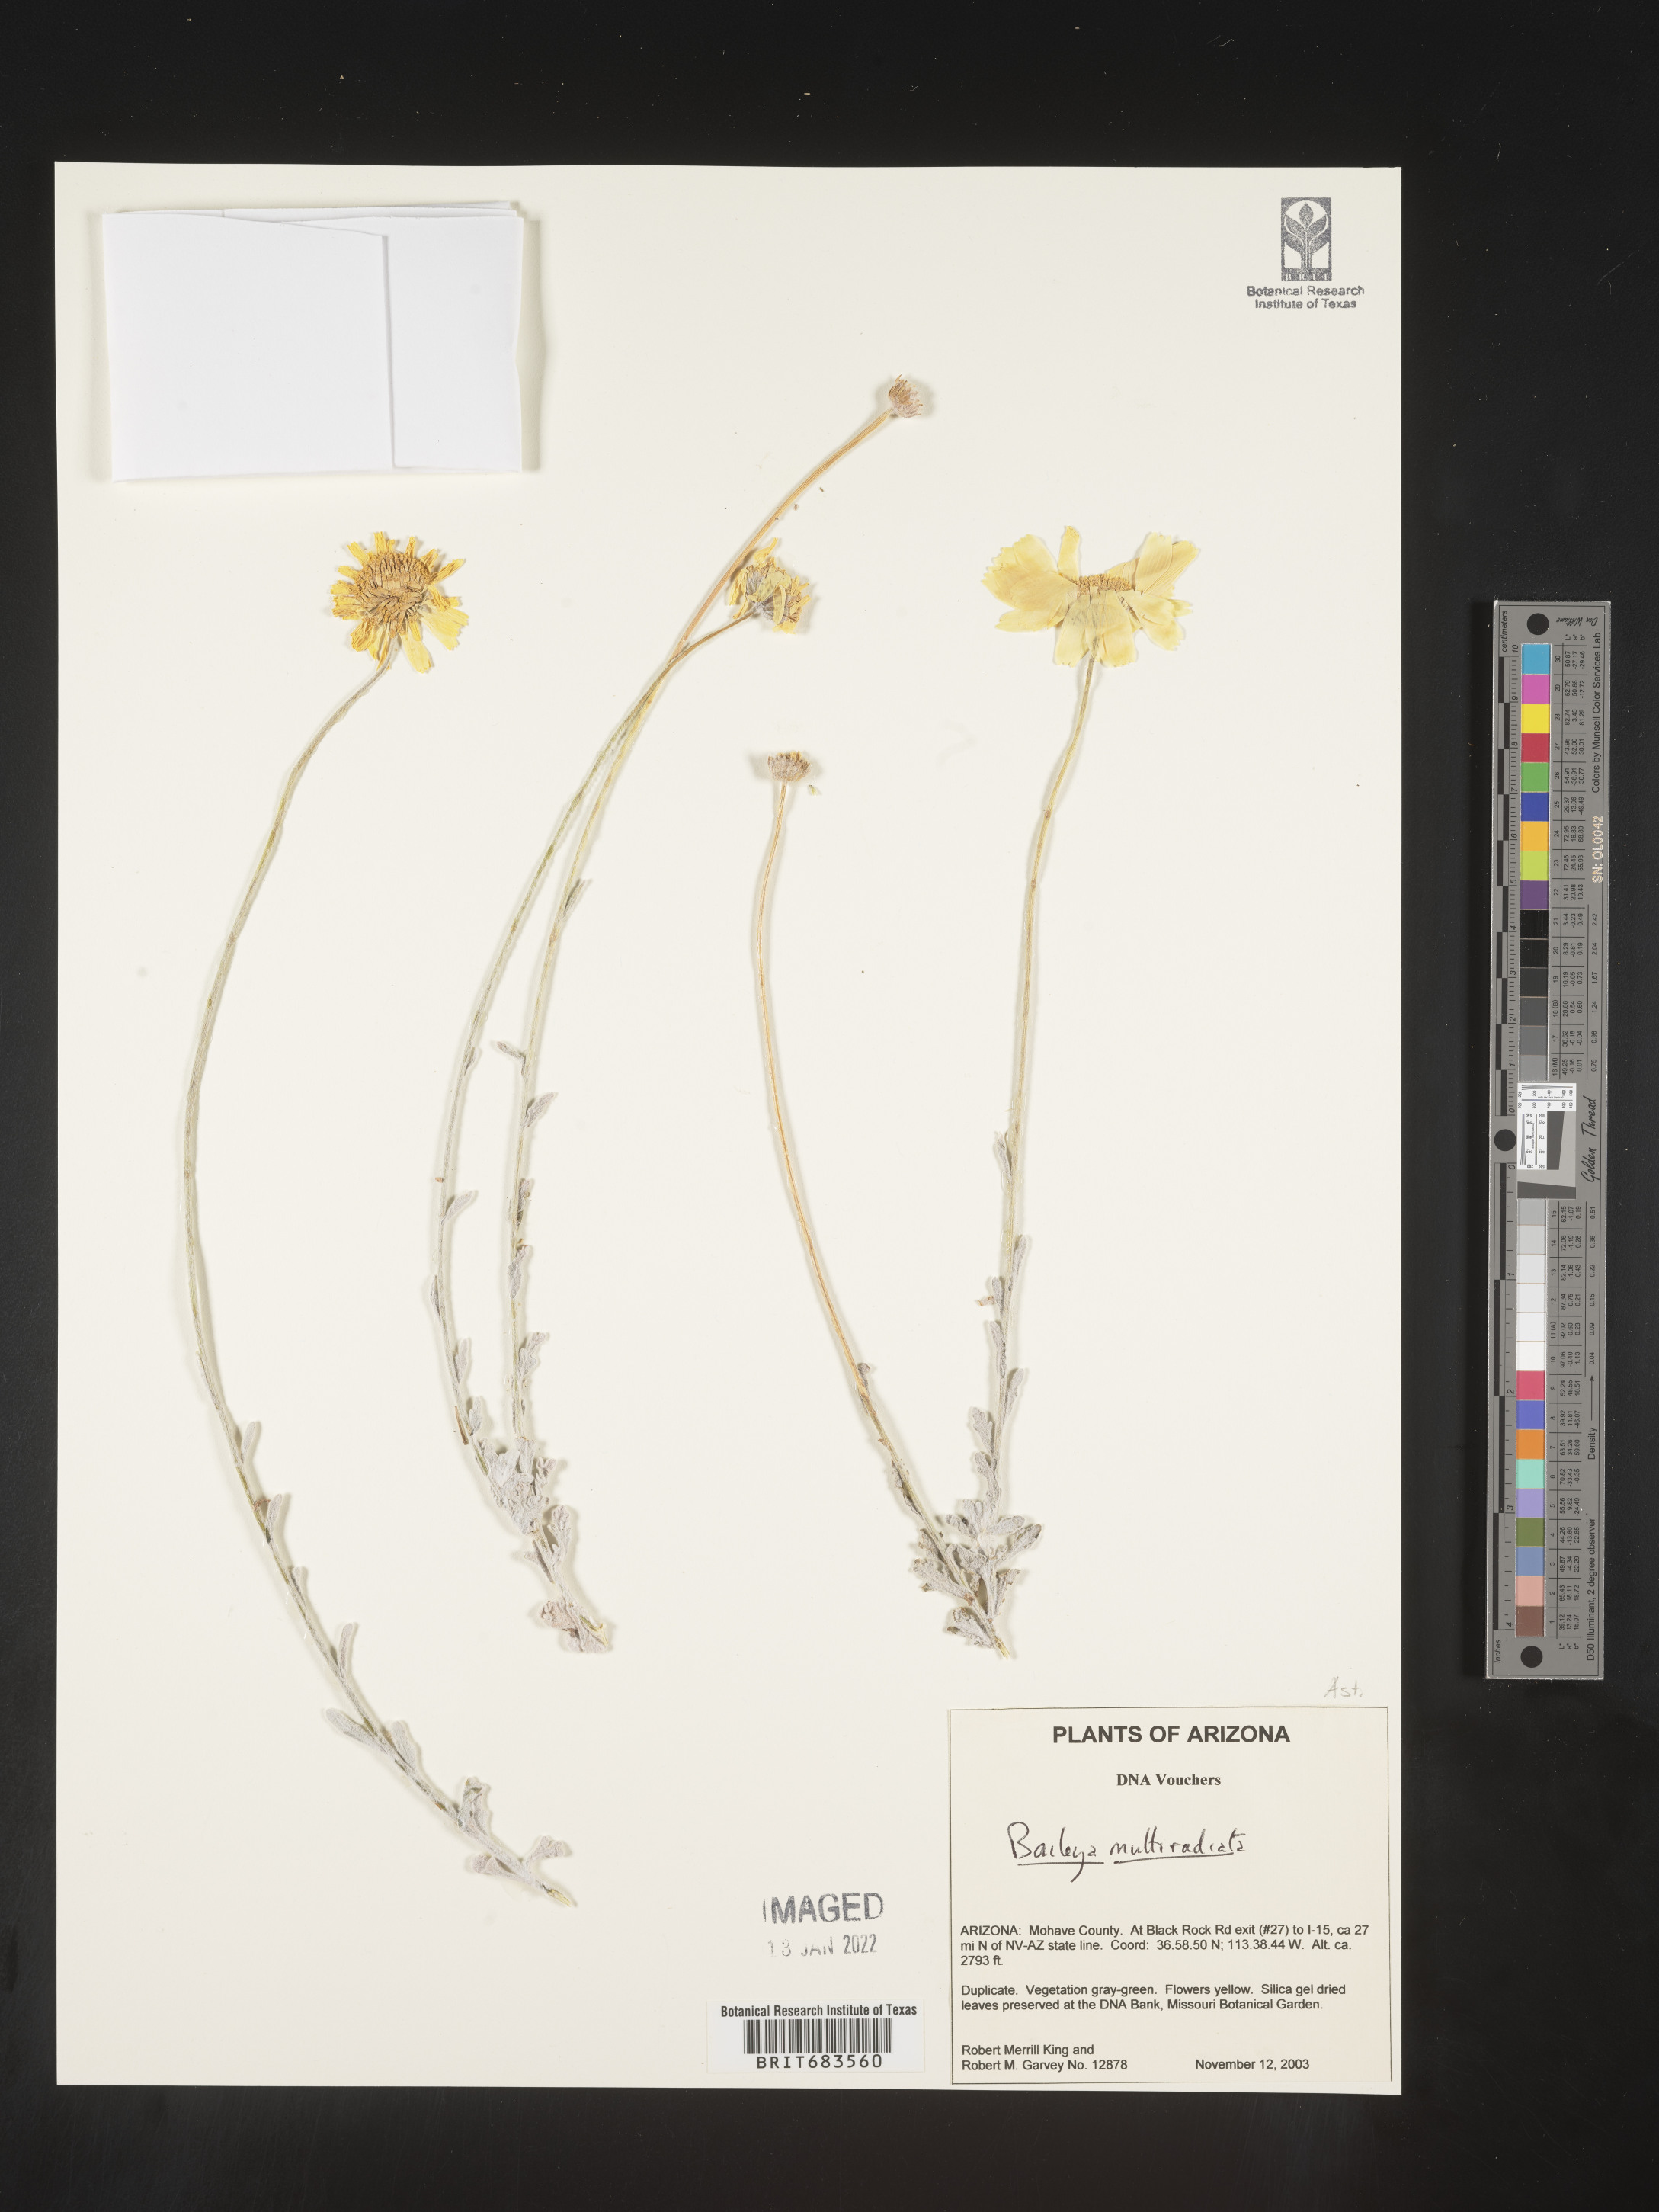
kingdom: Plantae
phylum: Tracheophyta
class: Magnoliopsida
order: Asterales
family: Asteraceae
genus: Baileya
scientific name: Baileya multiradiata
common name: Desert-marigold
